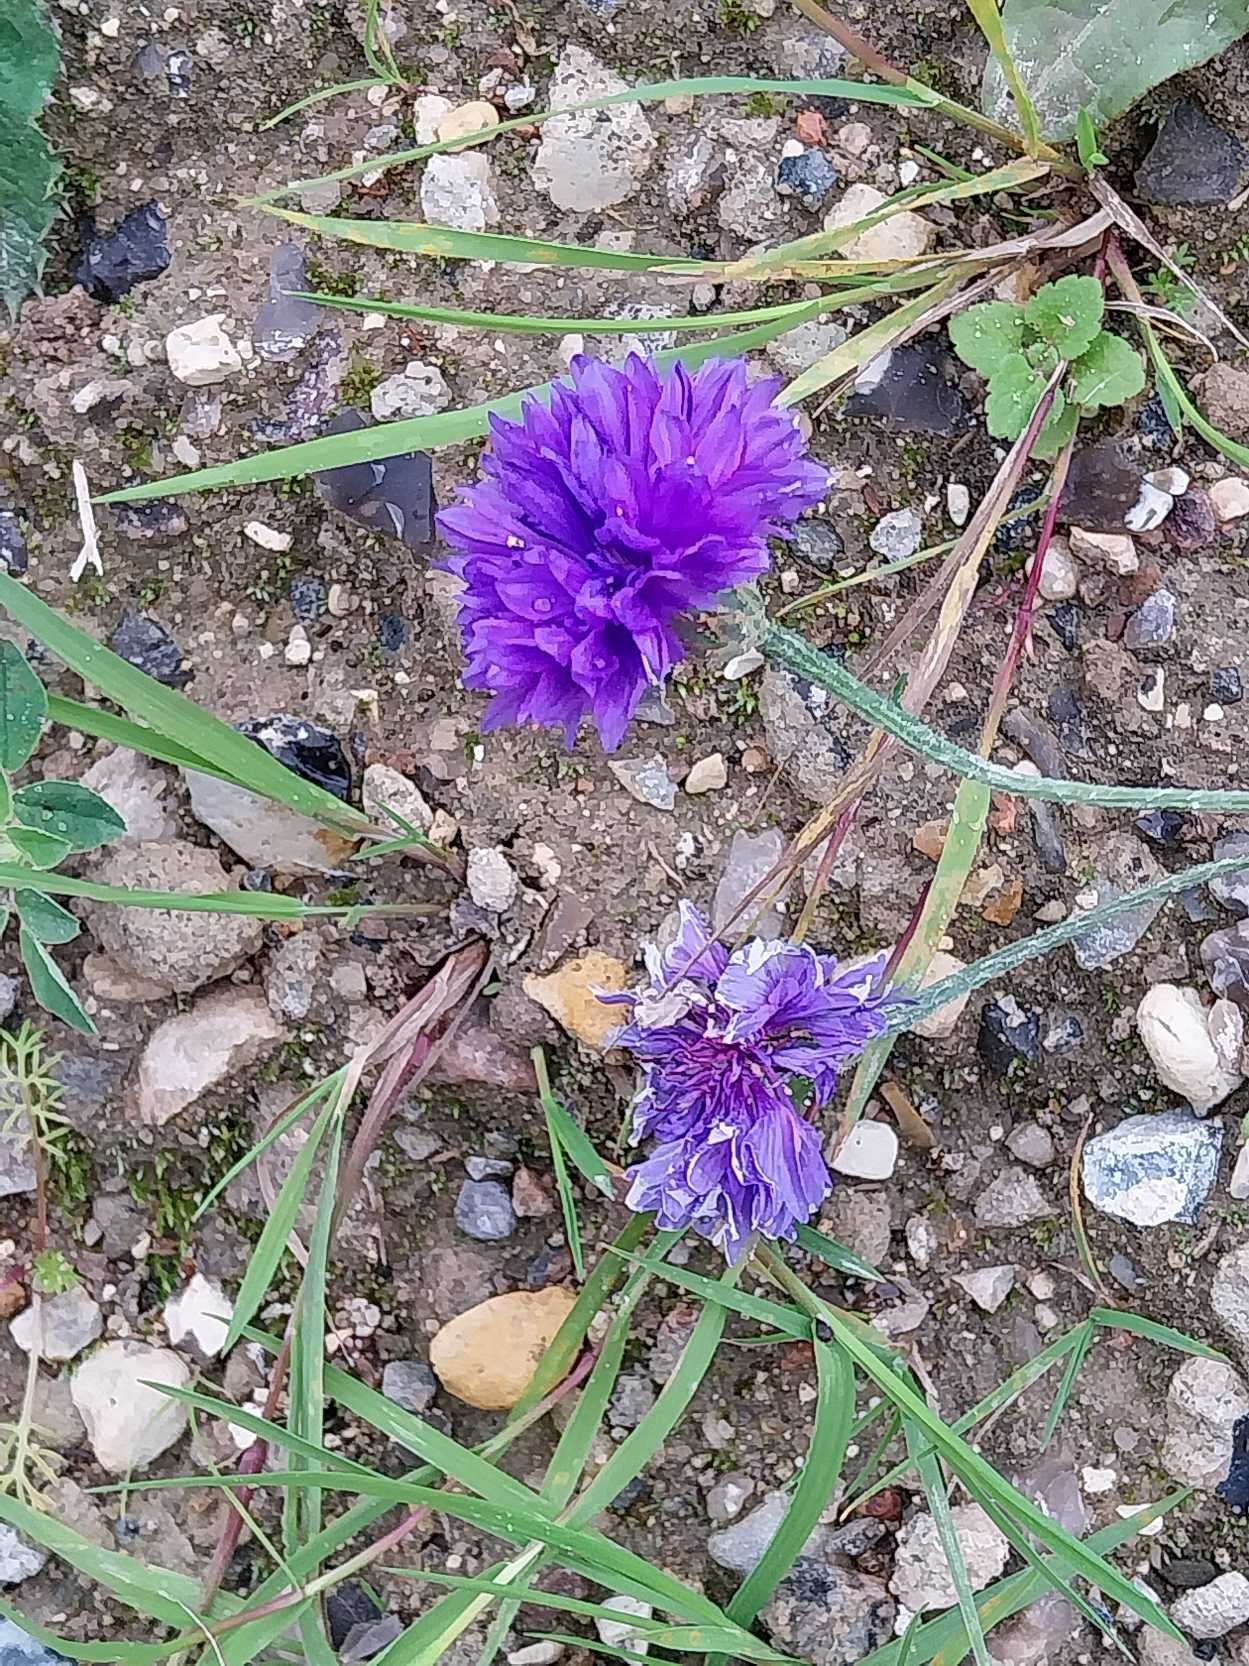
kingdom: Plantae
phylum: Tracheophyta
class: Magnoliopsida
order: Asterales
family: Asteraceae
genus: Centaurea
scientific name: Centaurea cyanus
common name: Kornblomst
